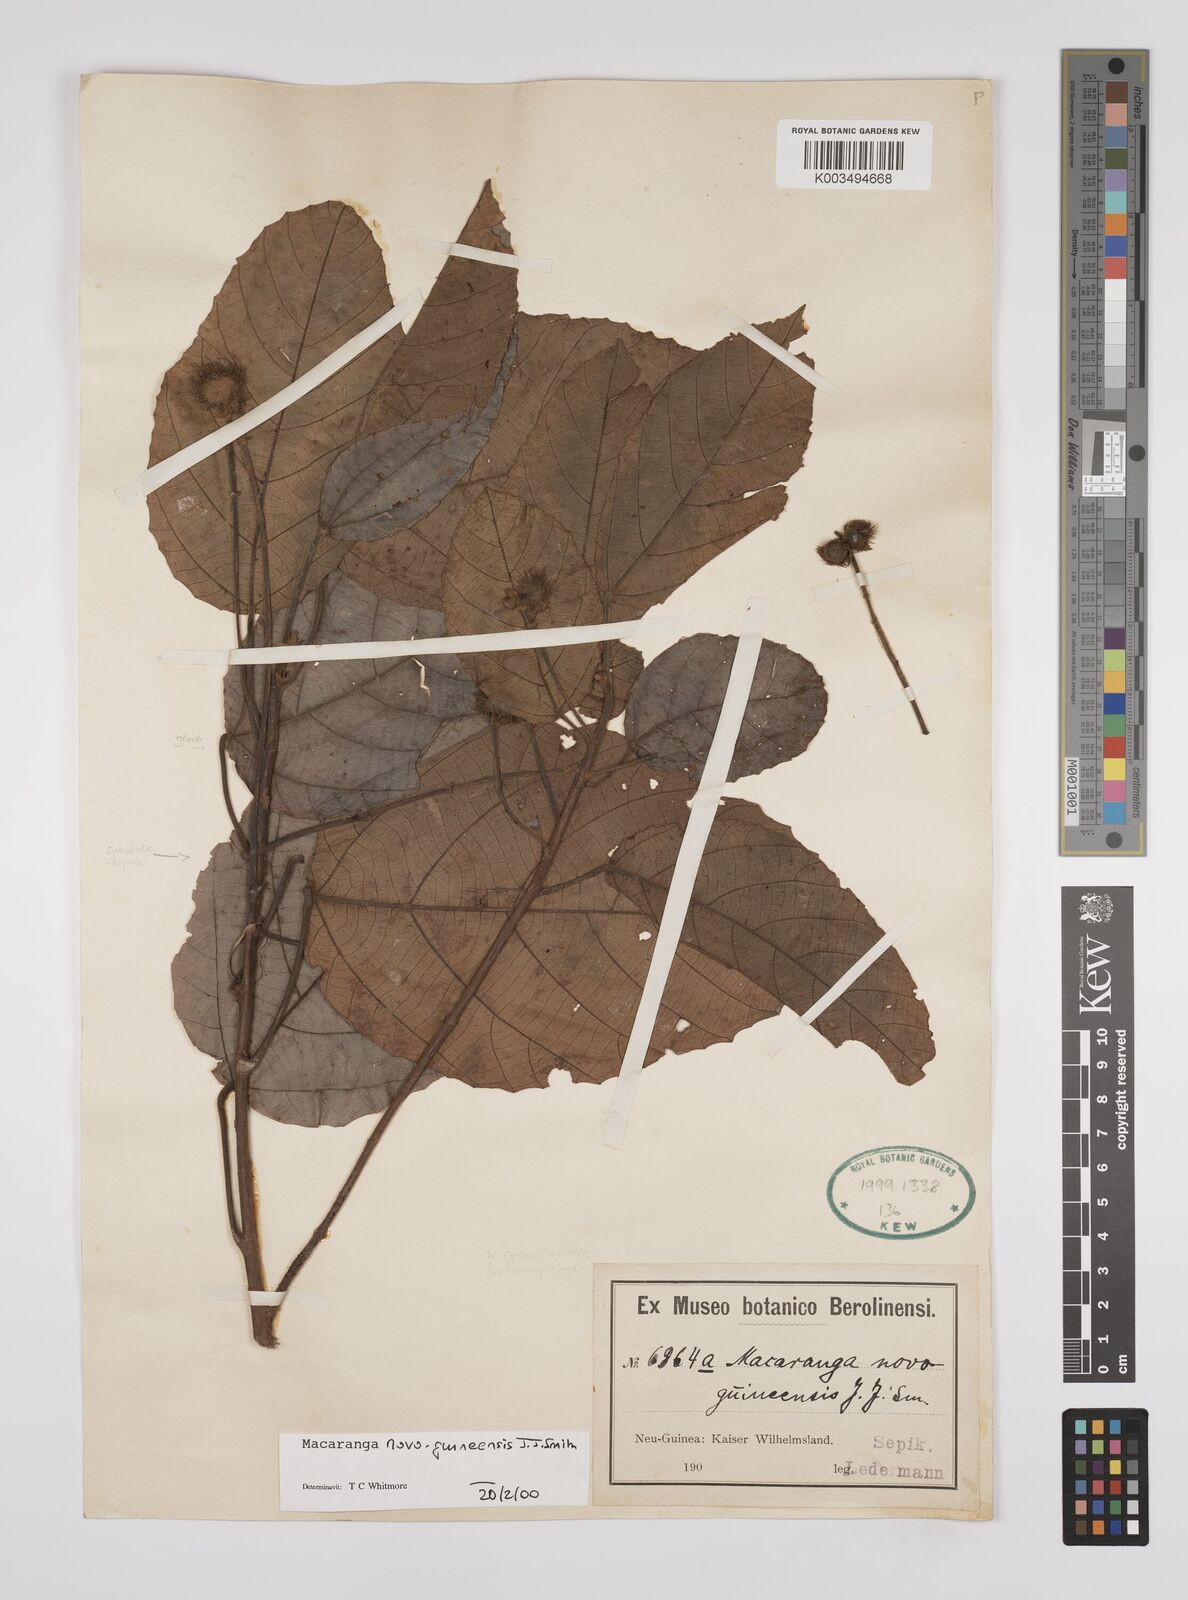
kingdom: Plantae
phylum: Tracheophyta
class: Magnoliopsida
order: Malpighiales
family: Euphorbiaceae
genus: Macaranga
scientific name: Macaranga novoguineensis
